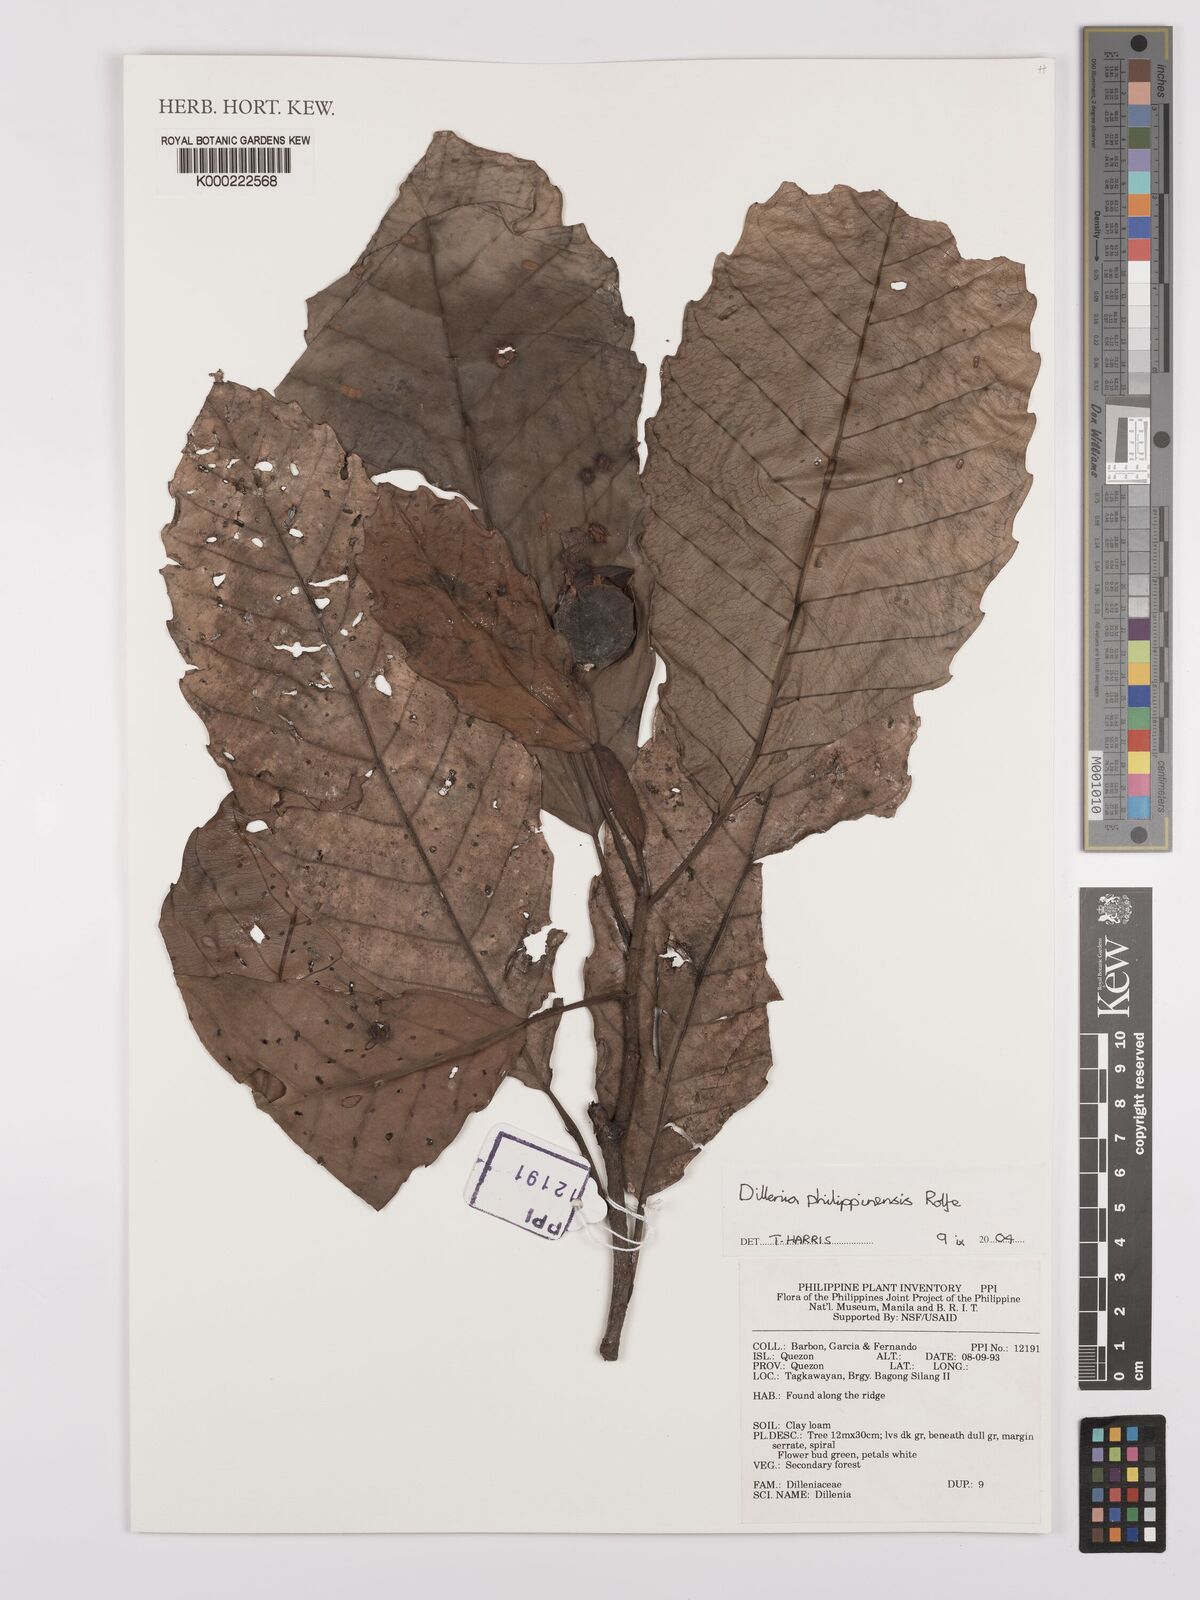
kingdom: Plantae
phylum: Tracheophyta
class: Magnoliopsida
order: Dilleniales
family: Dilleniaceae
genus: Dillenia
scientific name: Dillenia philippinensis
